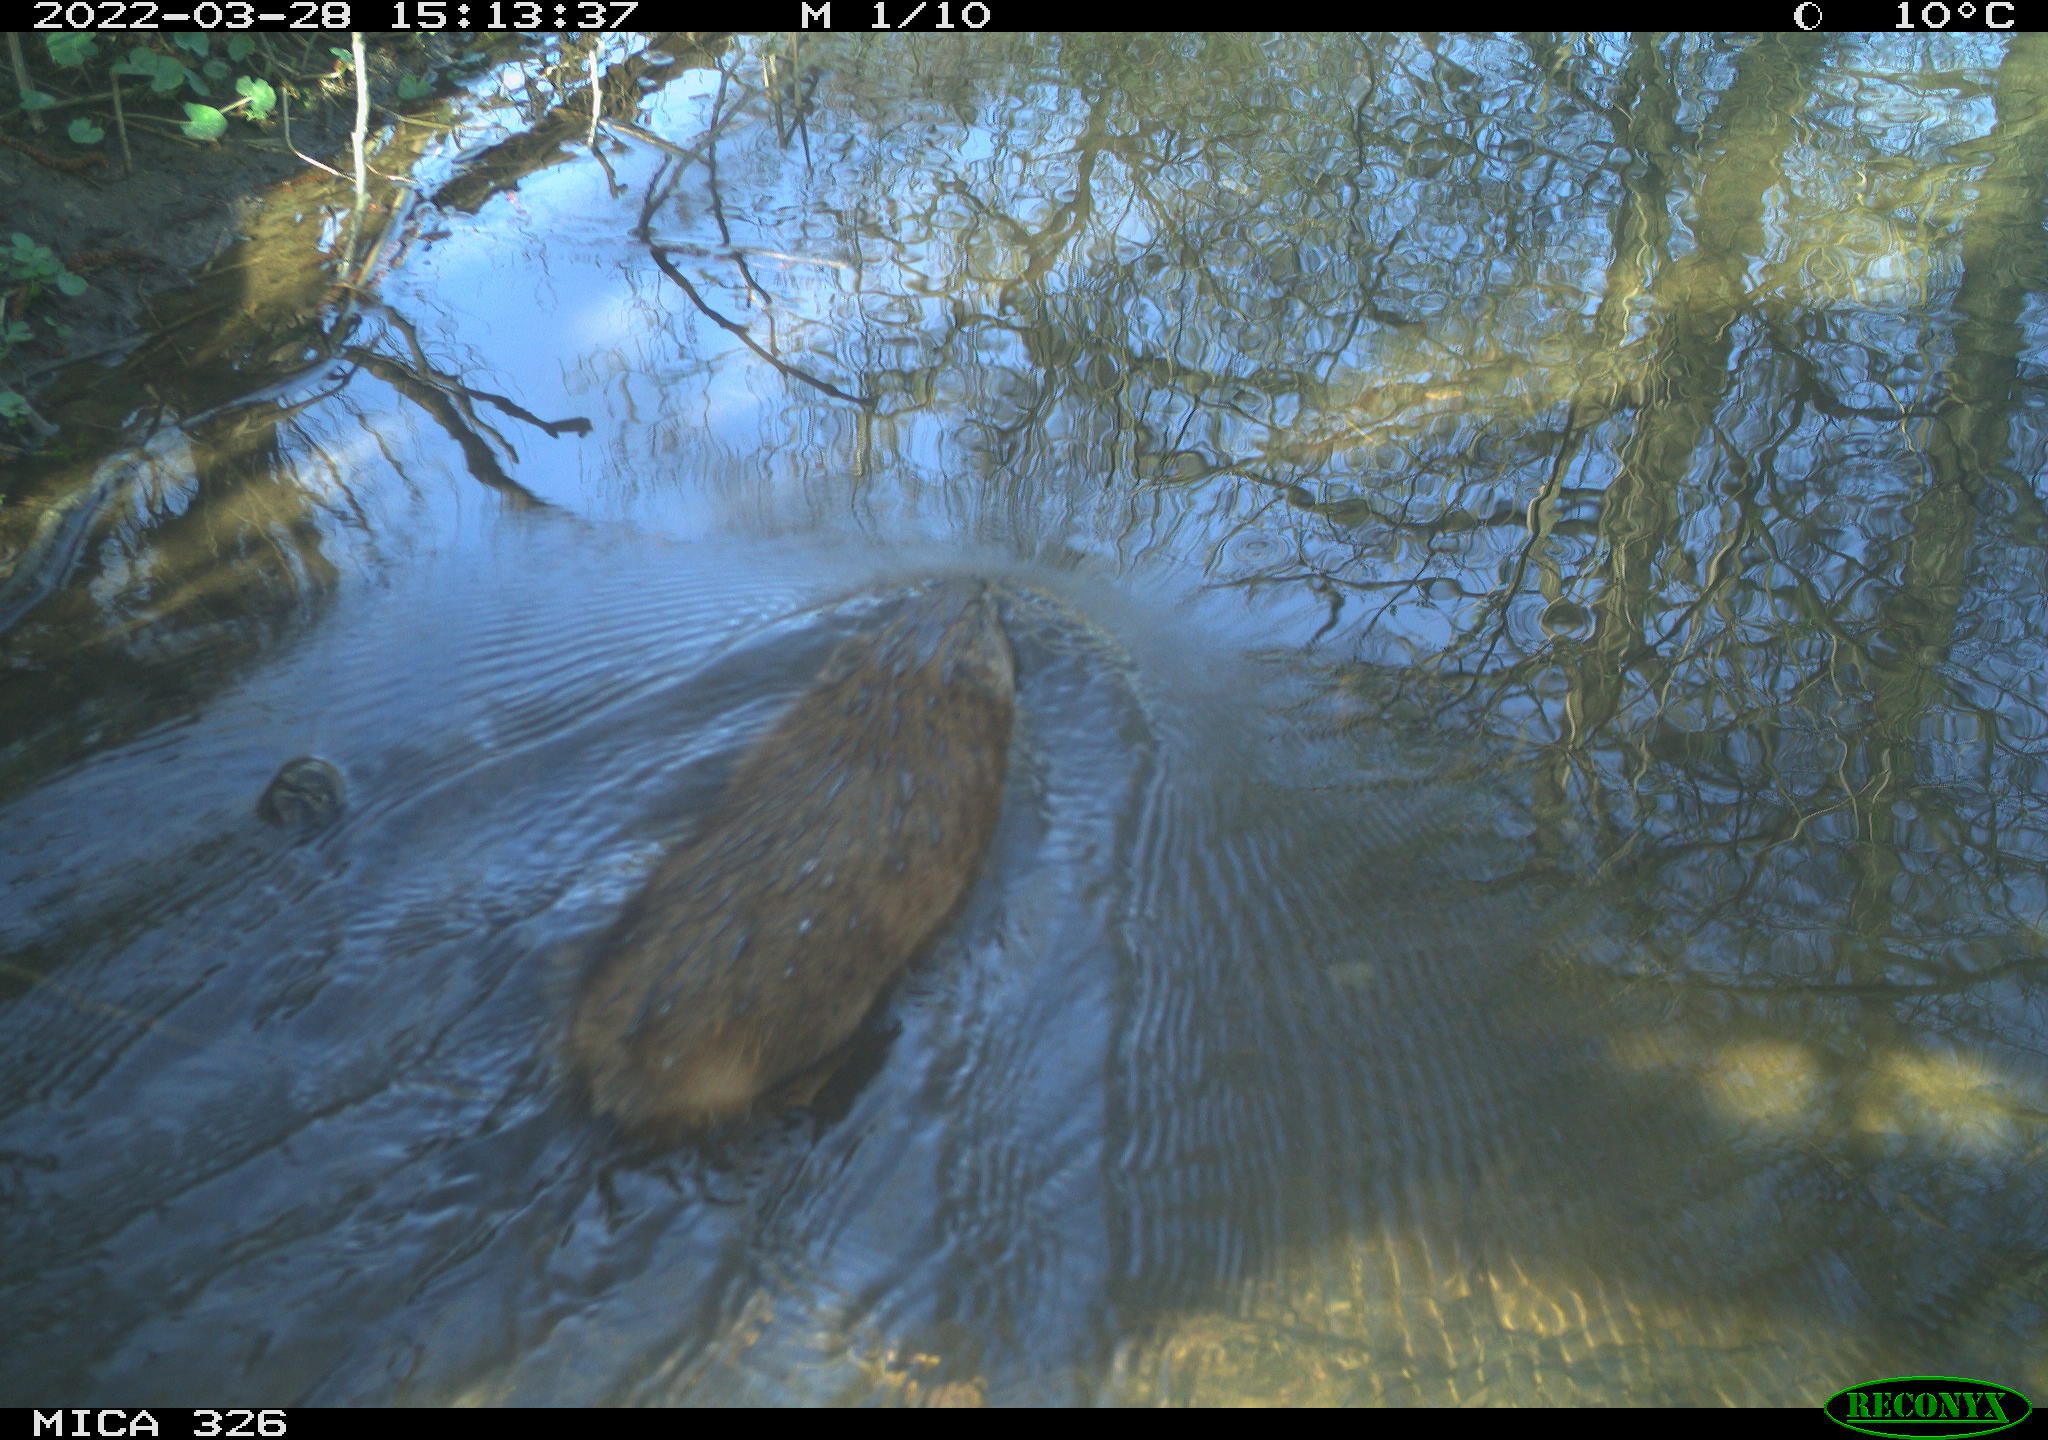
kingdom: Animalia
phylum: Chordata
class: Mammalia
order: Rodentia
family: Cricetidae
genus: Ondatra
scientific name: Ondatra zibethicus
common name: Muskrat
